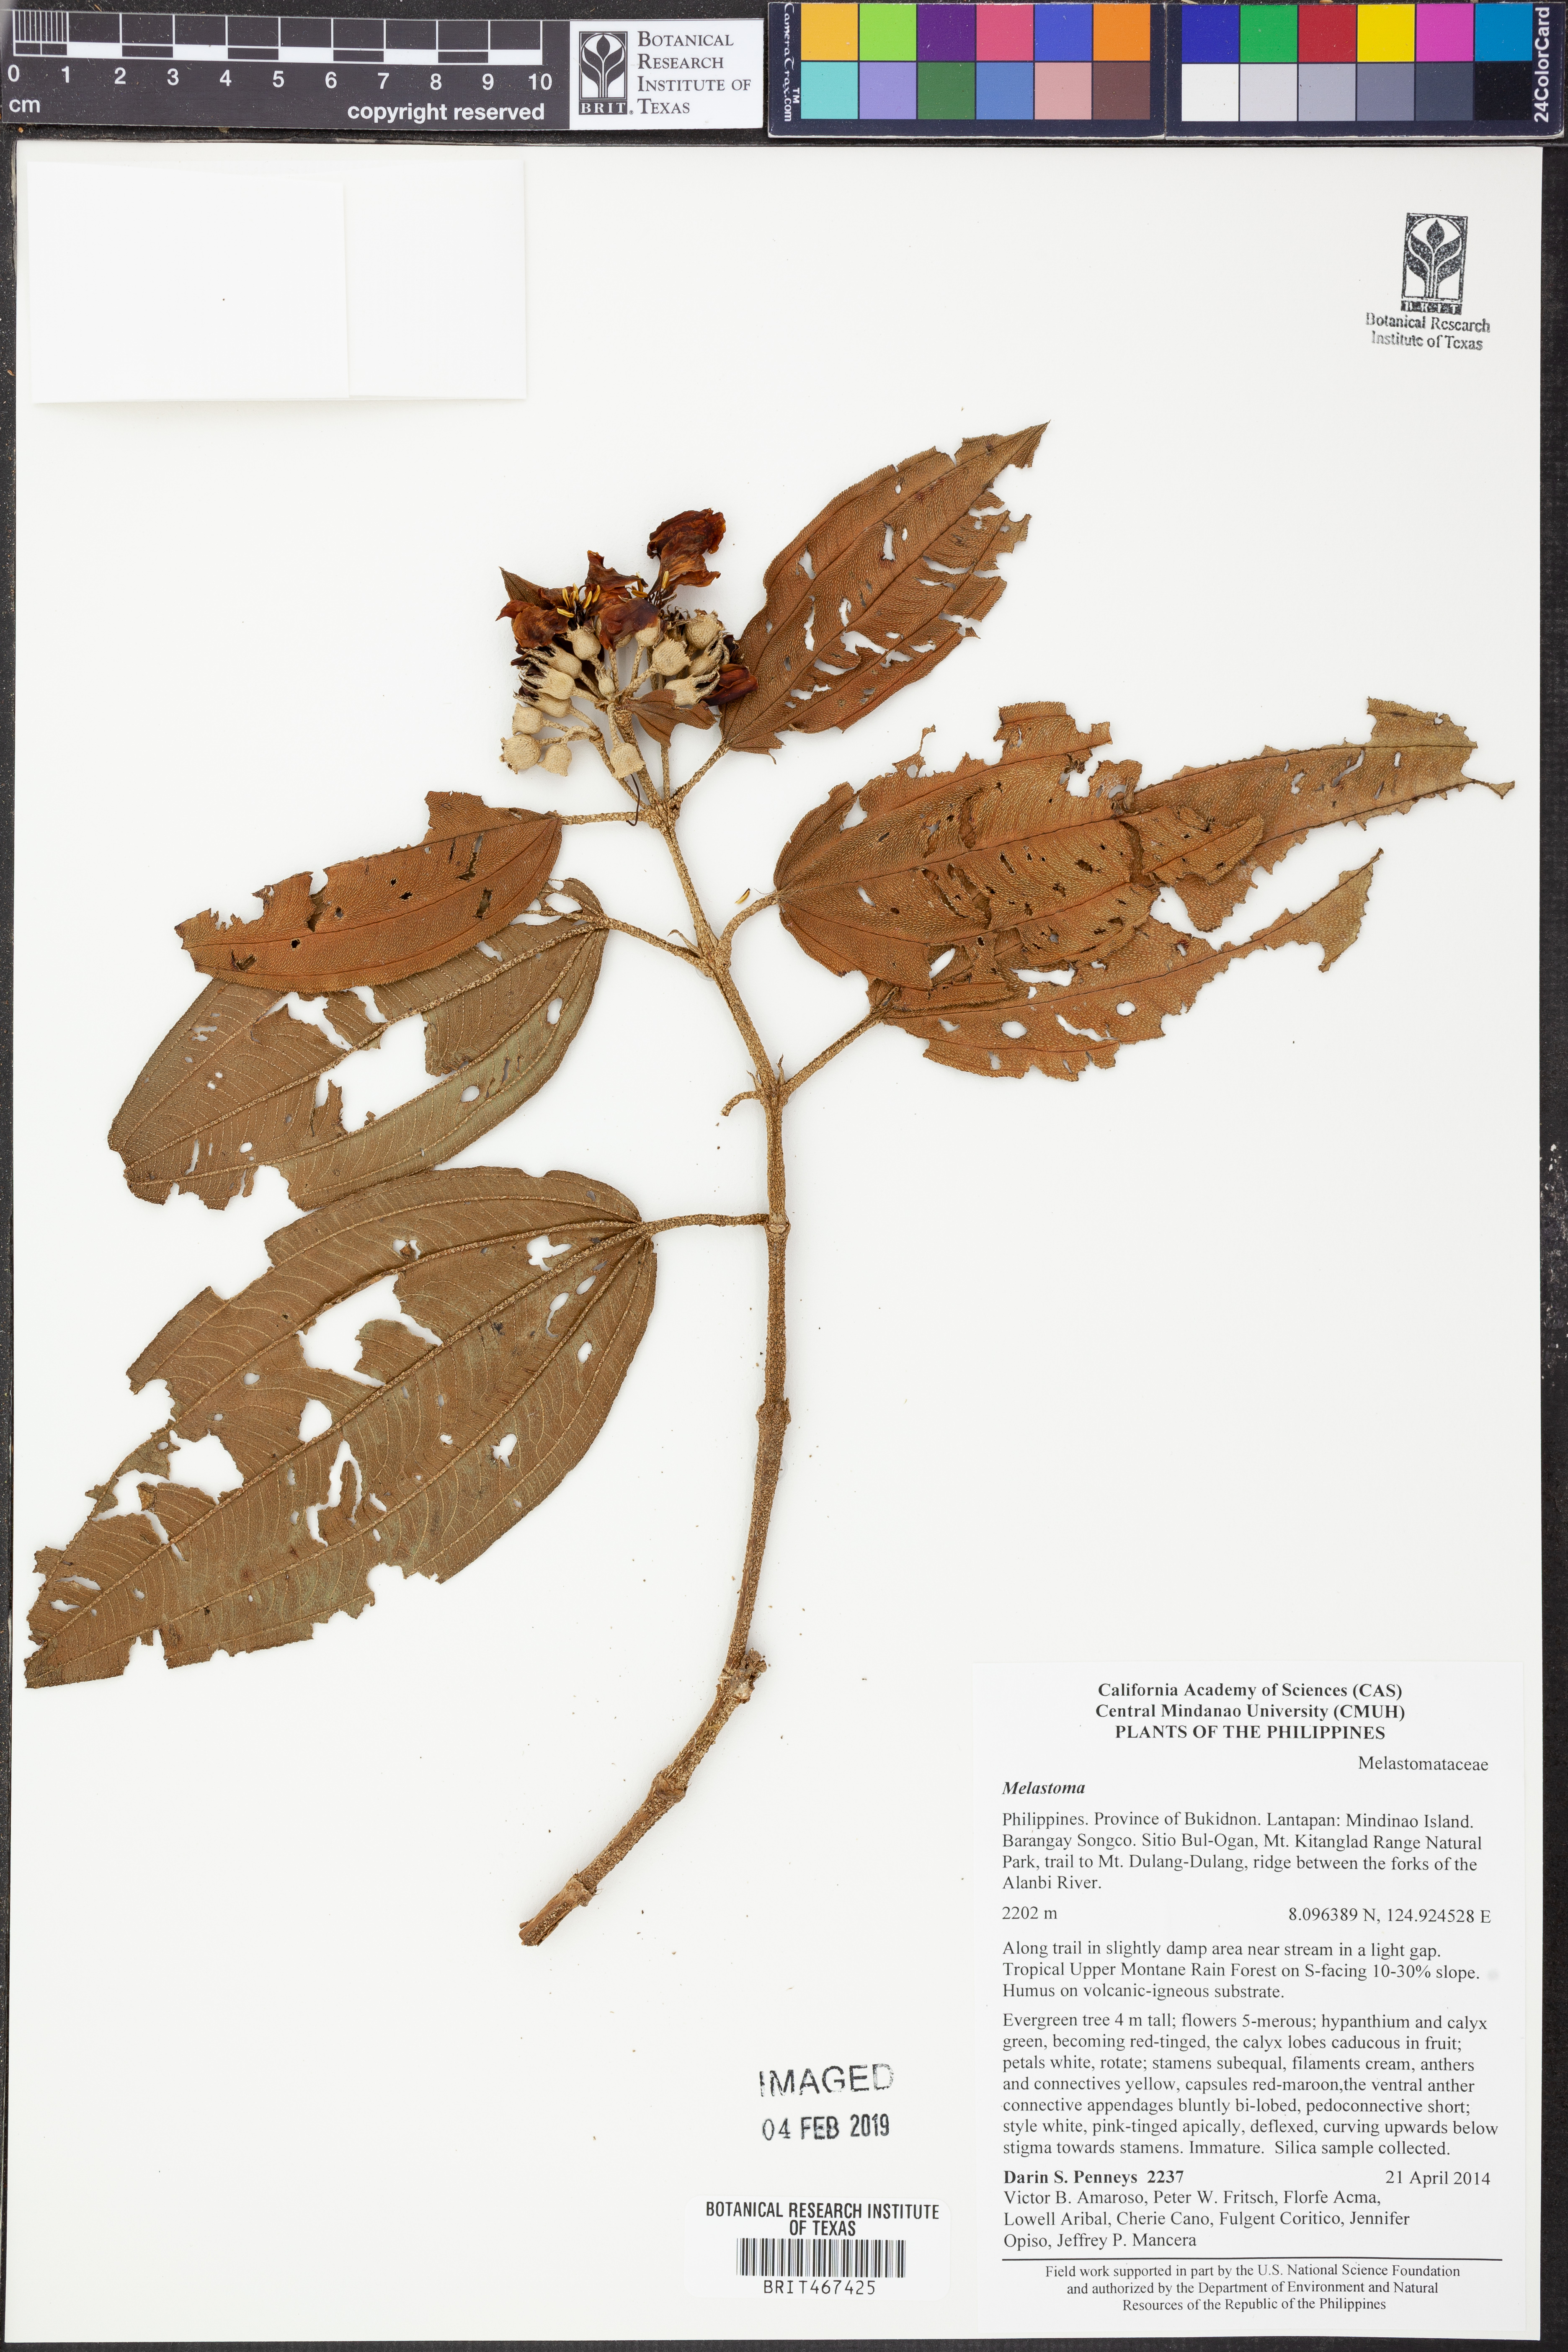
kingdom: Plantae
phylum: Tracheophyta
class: Magnoliopsida
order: Myrtales
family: Melastomataceae
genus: Melastoma
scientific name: Melastoma
